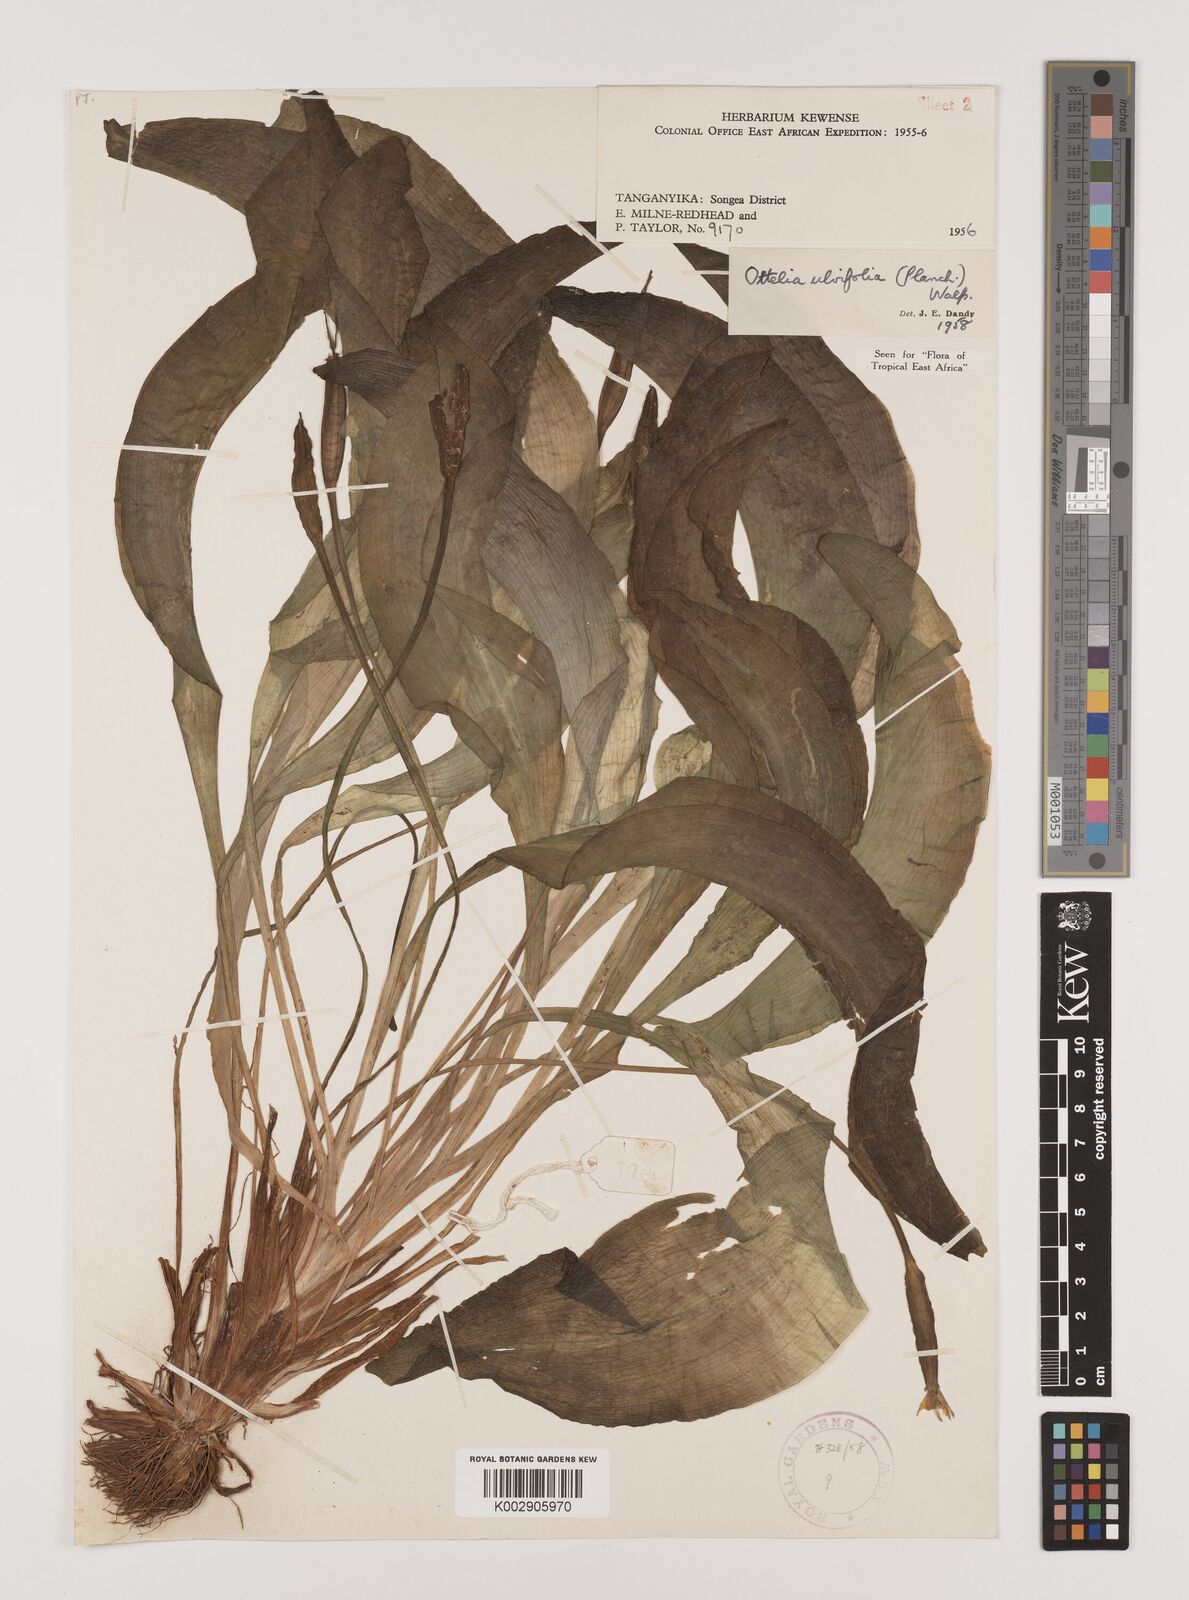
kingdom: Plantae
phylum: Tracheophyta
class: Liliopsida
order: Alismatales
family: Hydrocharitaceae
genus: Ottelia
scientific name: Ottelia ulvifolia
